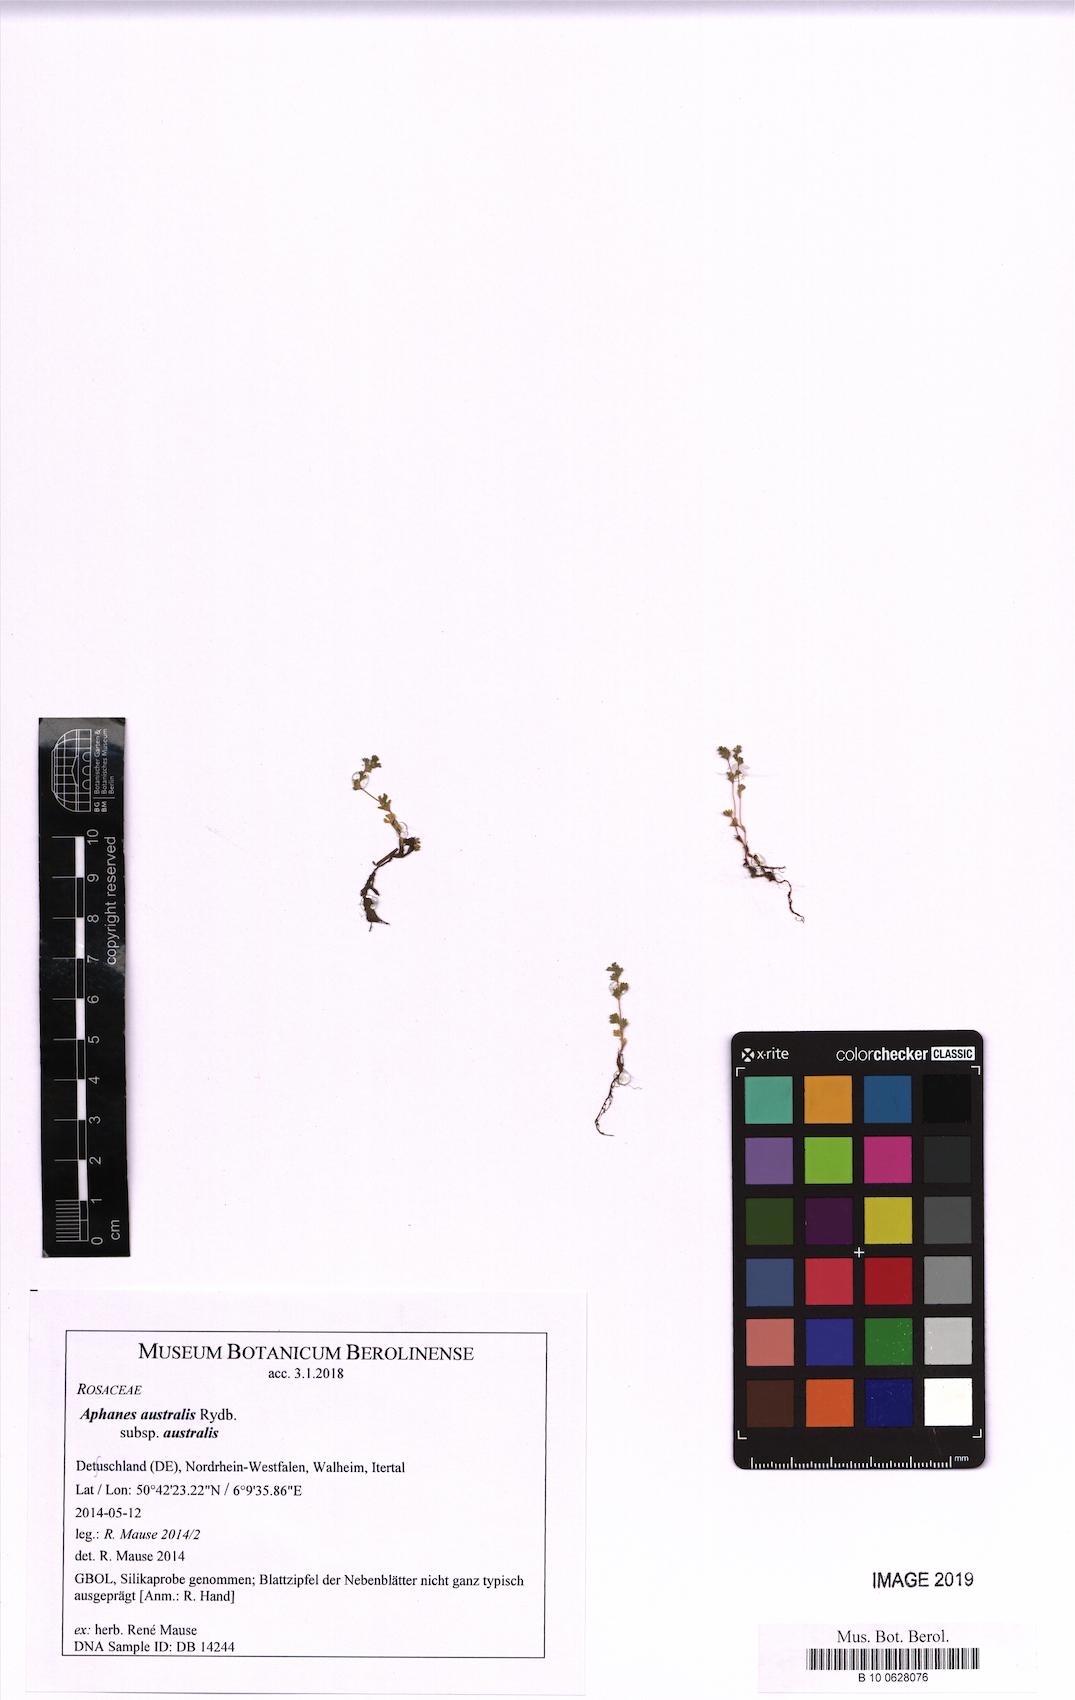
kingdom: Plantae
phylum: Tracheophyta
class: Magnoliopsida
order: Rosales
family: Rosaceae
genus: Aphanes
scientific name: Aphanes australis
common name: Slender parsley-piert
